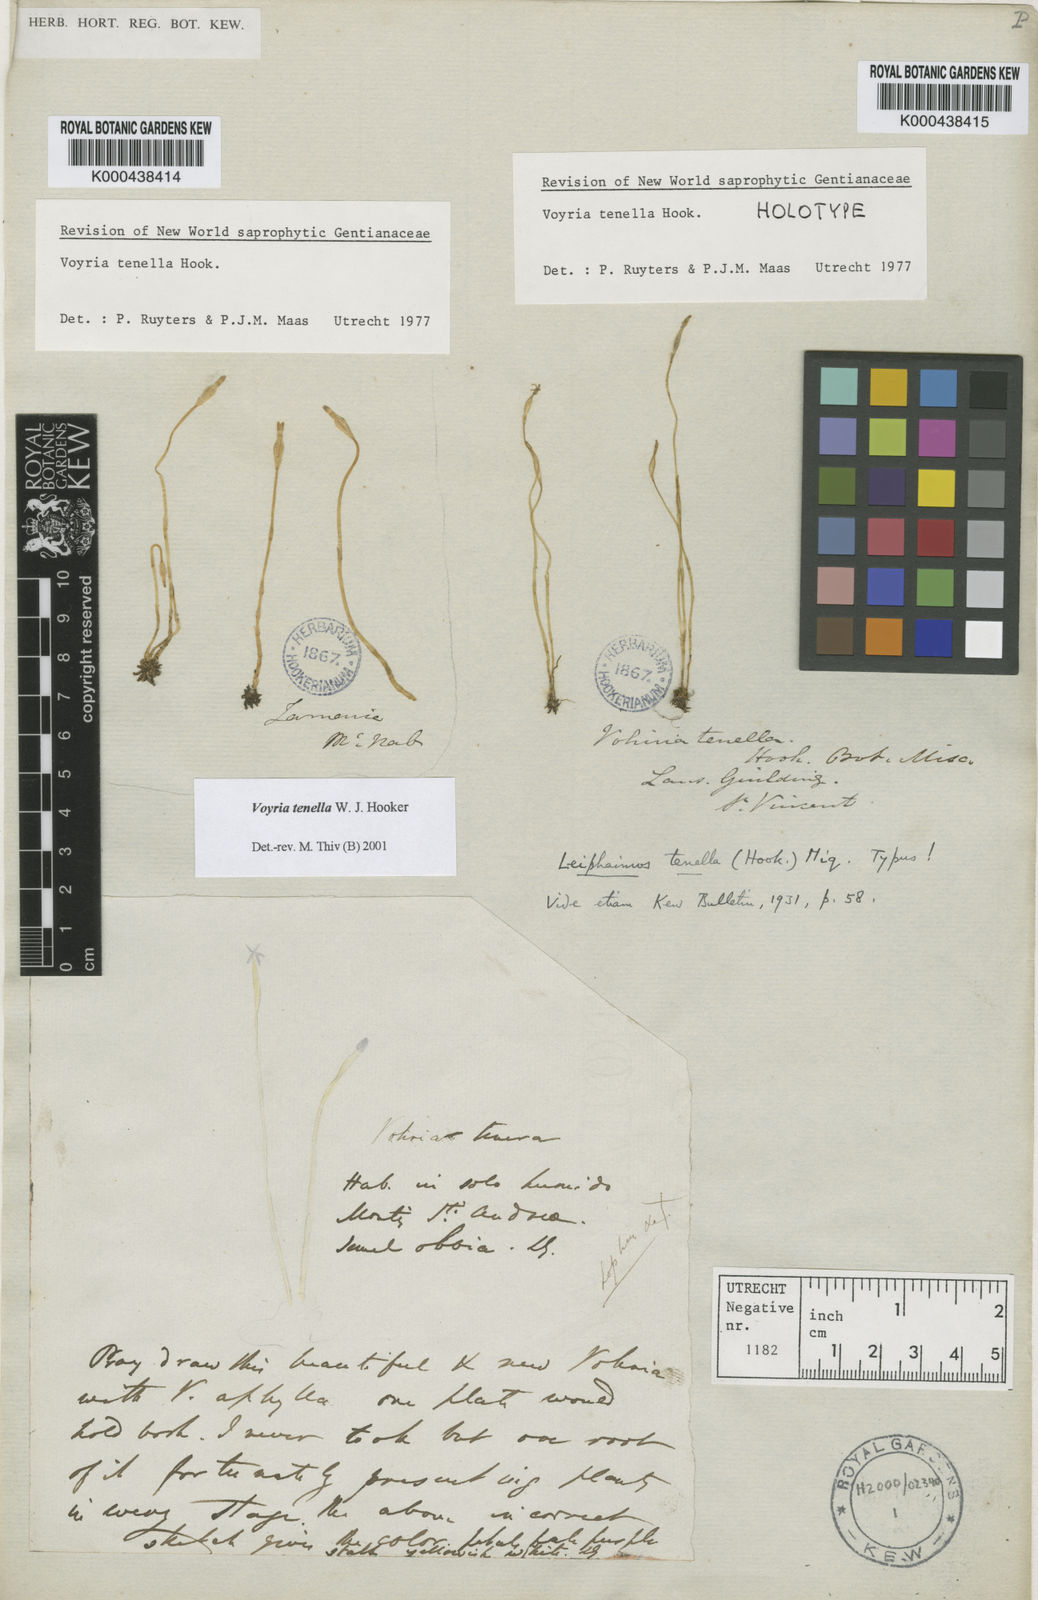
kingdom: Plantae
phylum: Tracheophyta
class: Magnoliopsida
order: Gentianales
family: Gentianaceae
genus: Voyria
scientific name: Voyria tenella
